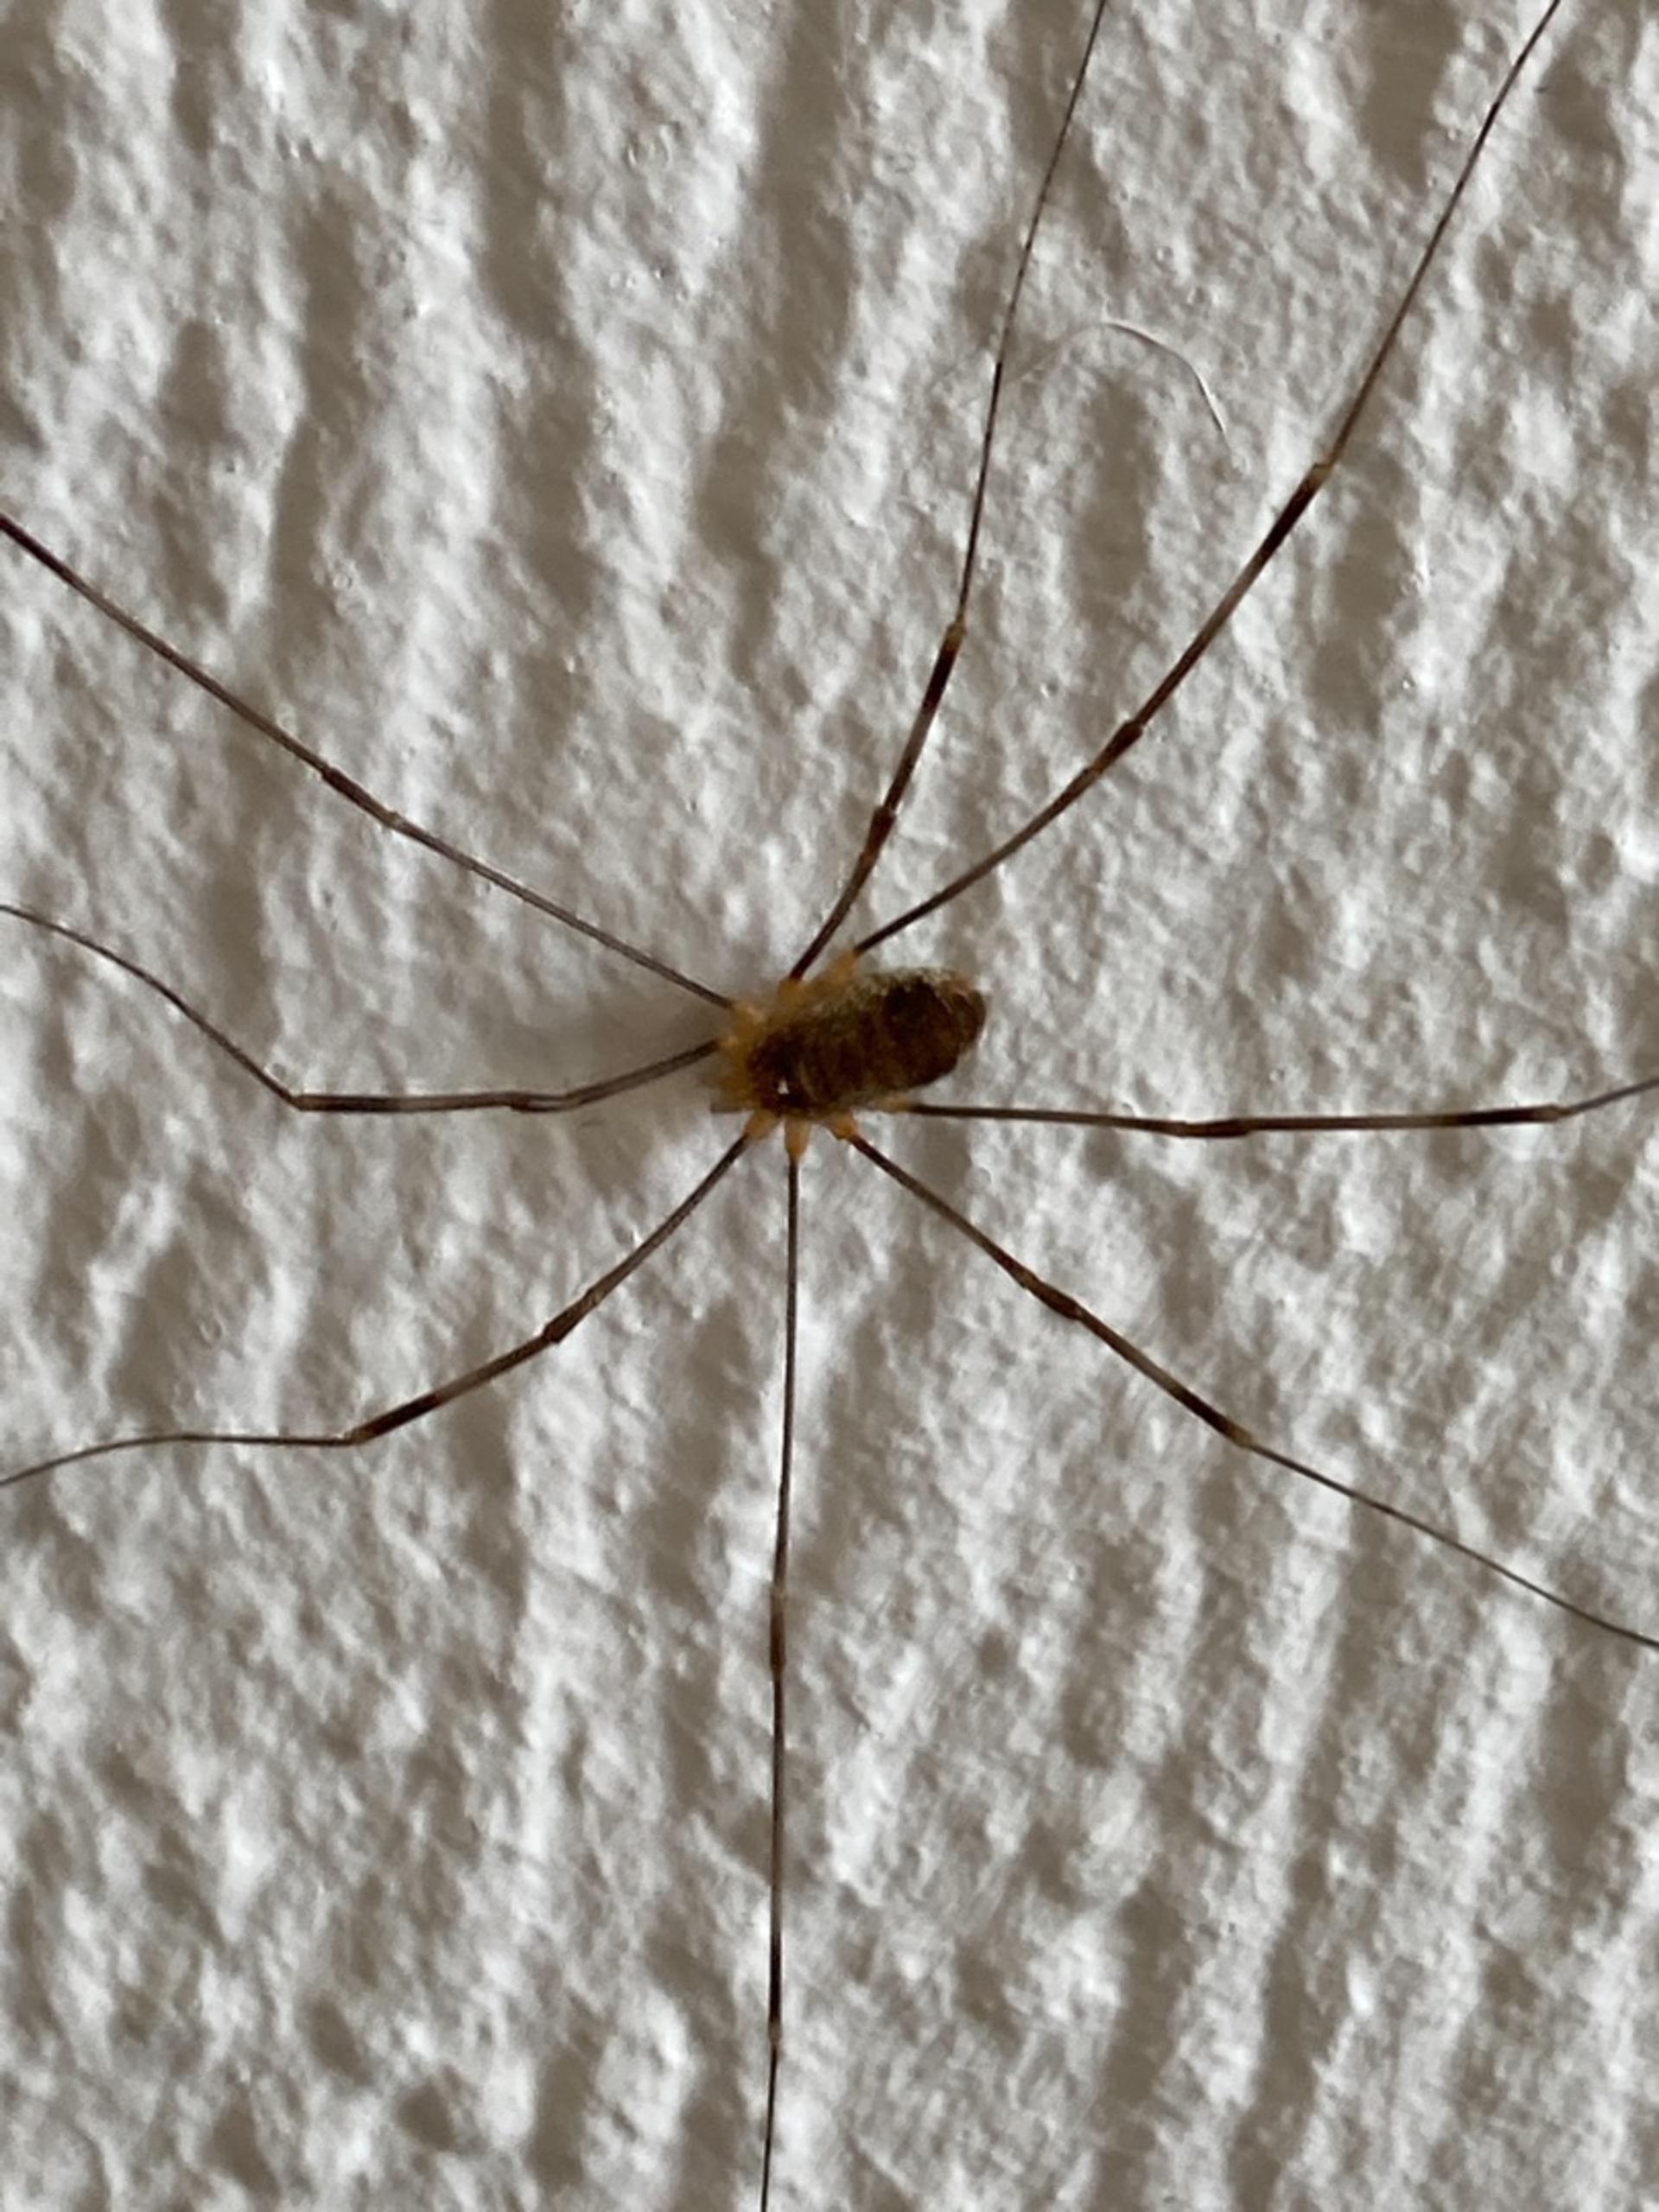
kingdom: Animalia
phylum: Arthropoda
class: Arachnida
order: Opiliones
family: Phalangiidae
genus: Opilio
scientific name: Opilio canestrinii
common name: Orange vægmejer
